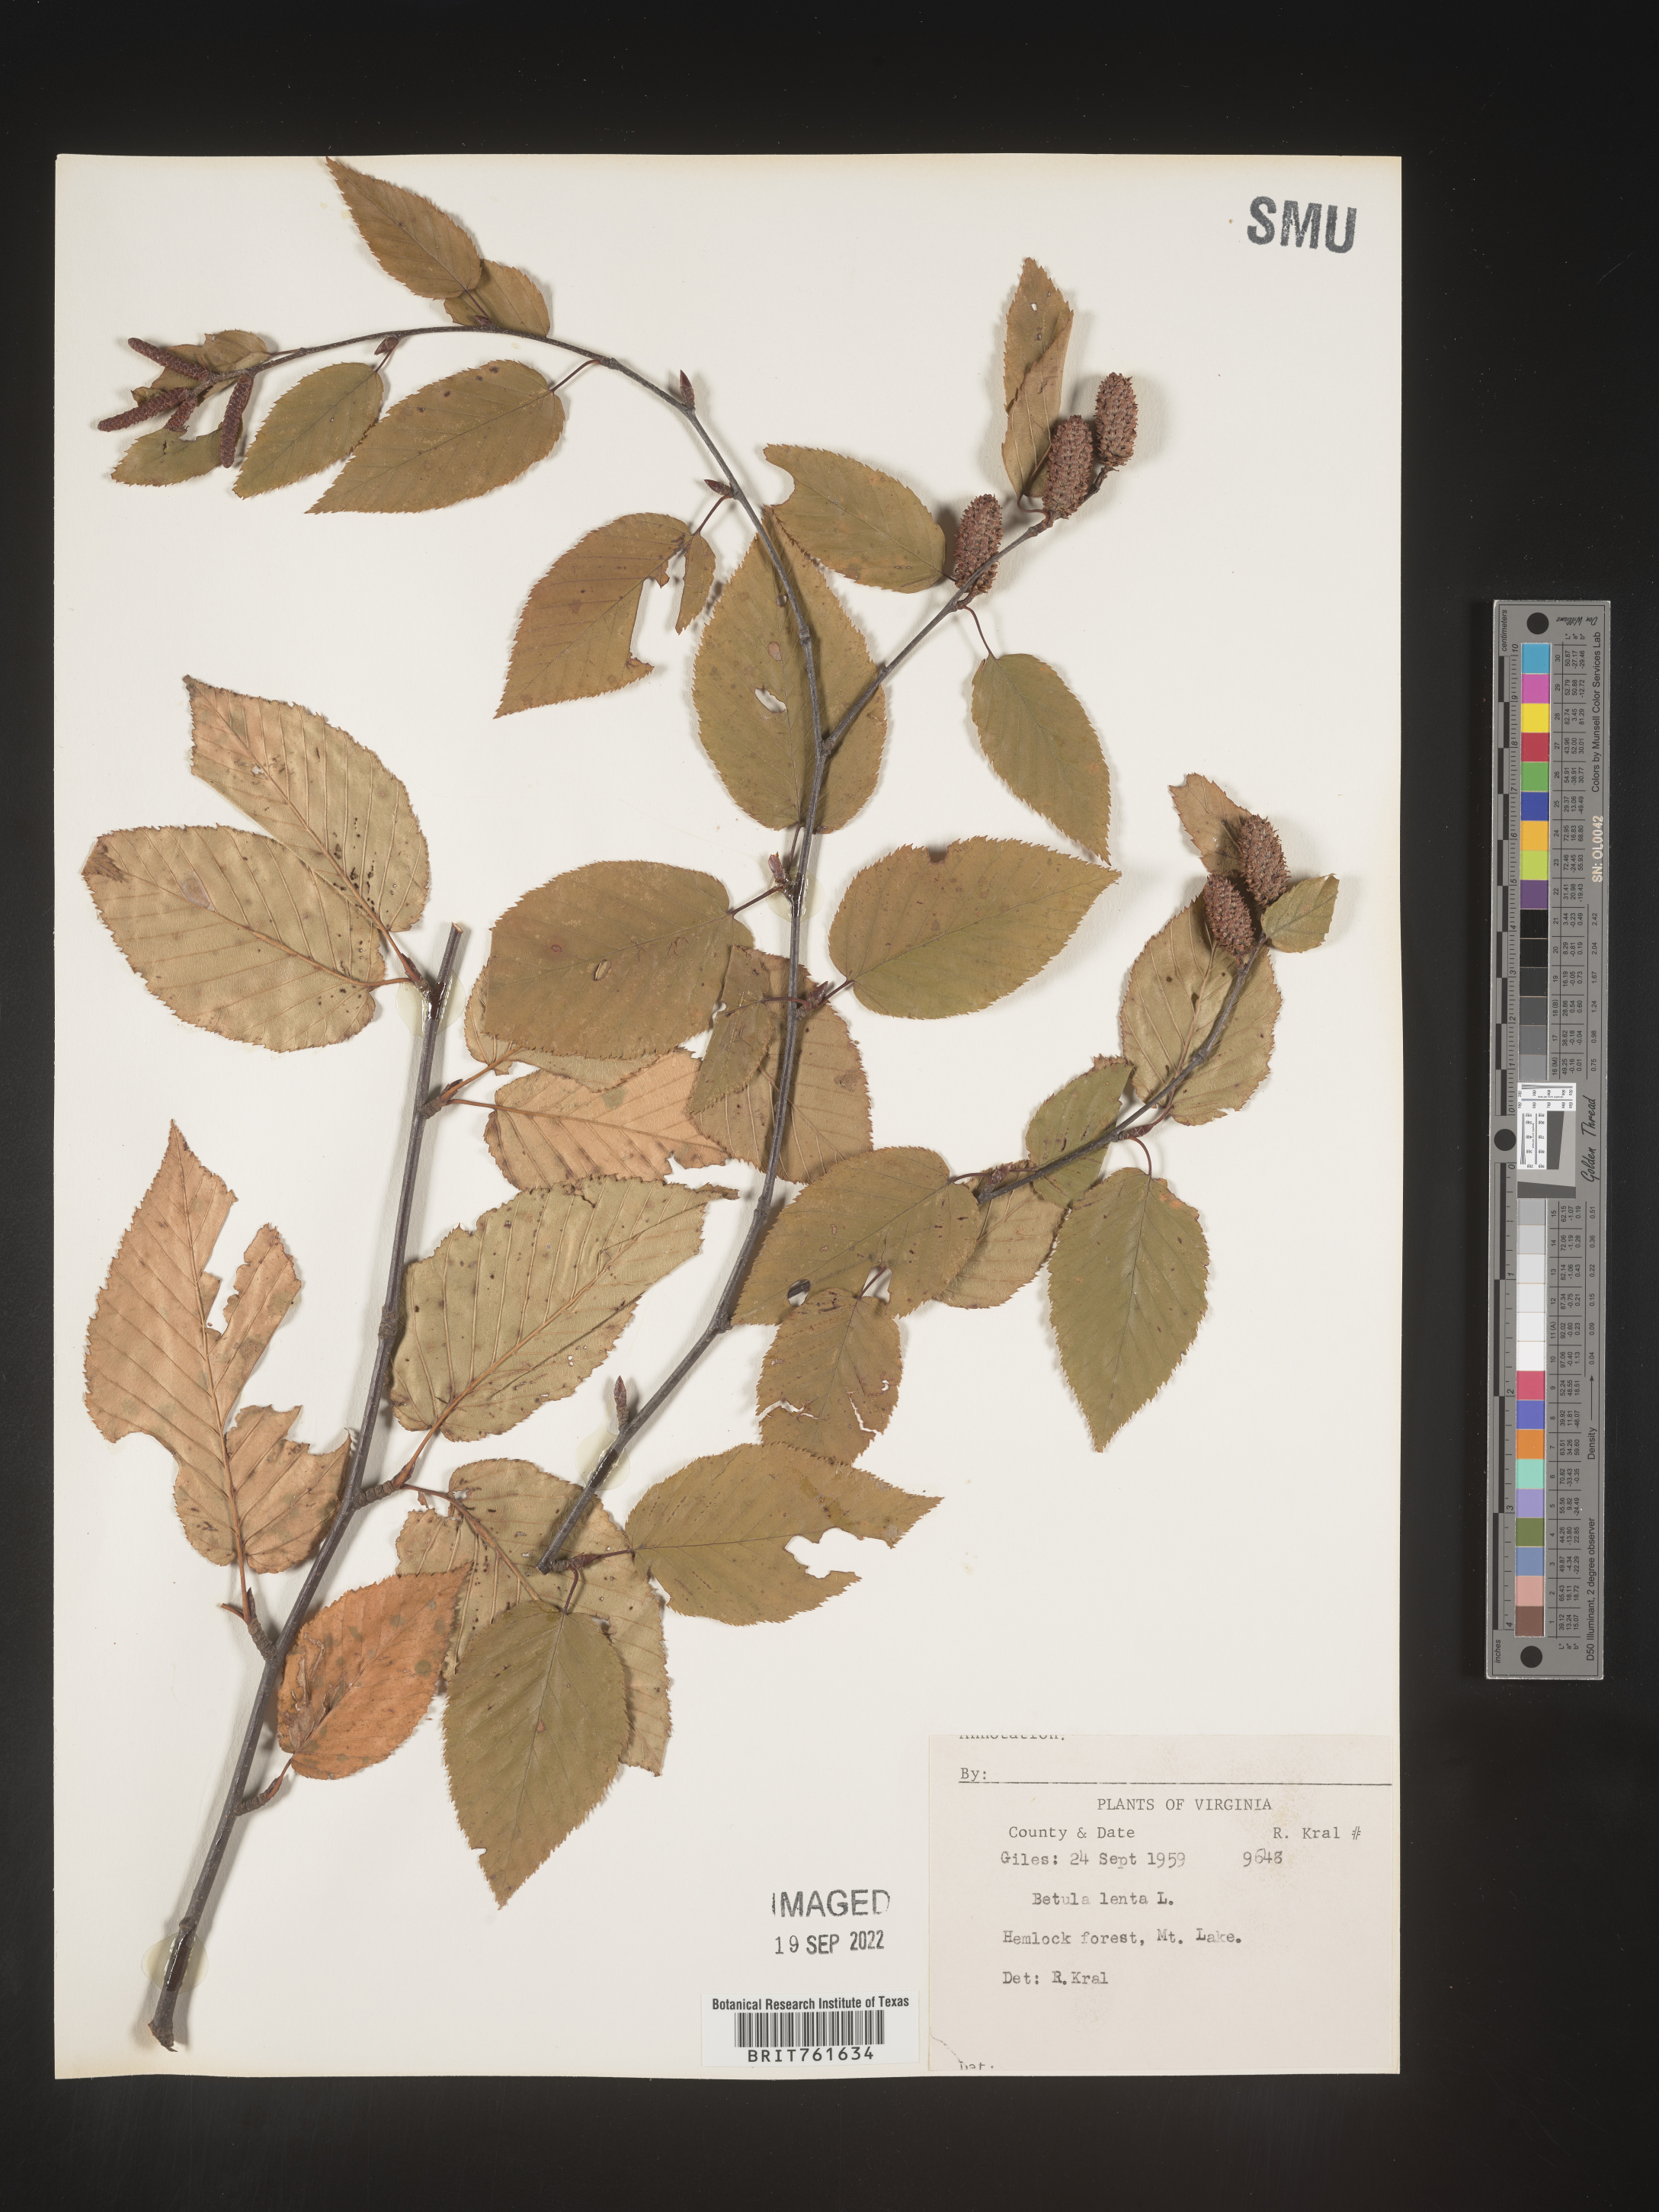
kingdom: Plantae
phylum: Tracheophyta
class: Magnoliopsida
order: Fagales
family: Betulaceae
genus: Betula
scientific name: Betula lenta
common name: Black birch
